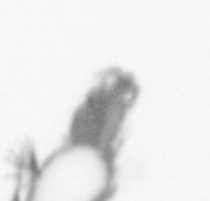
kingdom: Animalia
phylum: Annelida
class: Polychaeta
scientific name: Polychaeta
